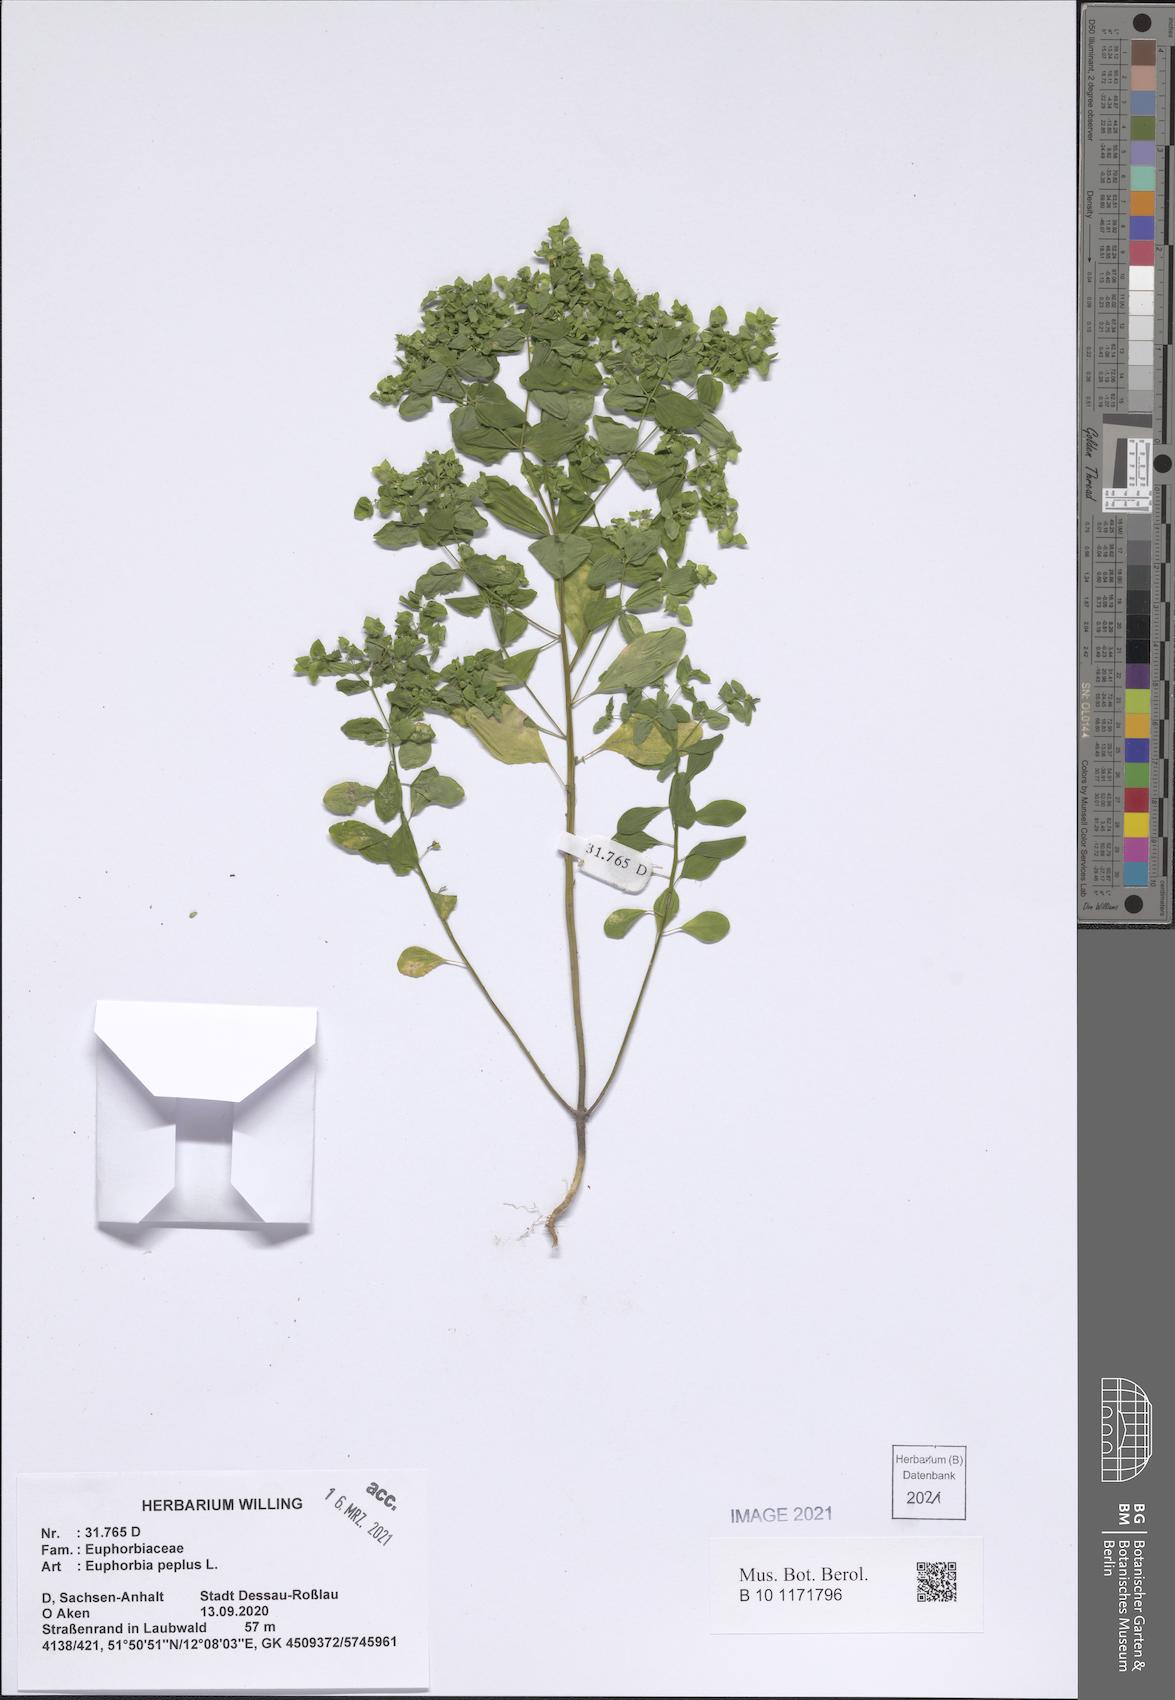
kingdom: Plantae
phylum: Tracheophyta
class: Magnoliopsida
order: Malpighiales
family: Euphorbiaceae
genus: Euphorbia
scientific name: Euphorbia peplus
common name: Petty spurge
